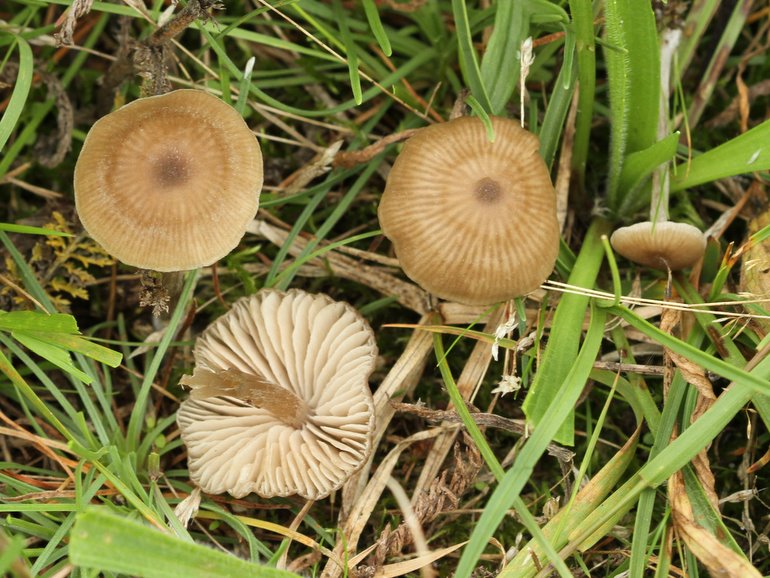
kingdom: Fungi
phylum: Basidiomycota
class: Agaricomycetes
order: Agaricales
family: Entolomataceae
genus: Entoloma
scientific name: Entoloma sericeum
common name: silkeglinsende rødblad
